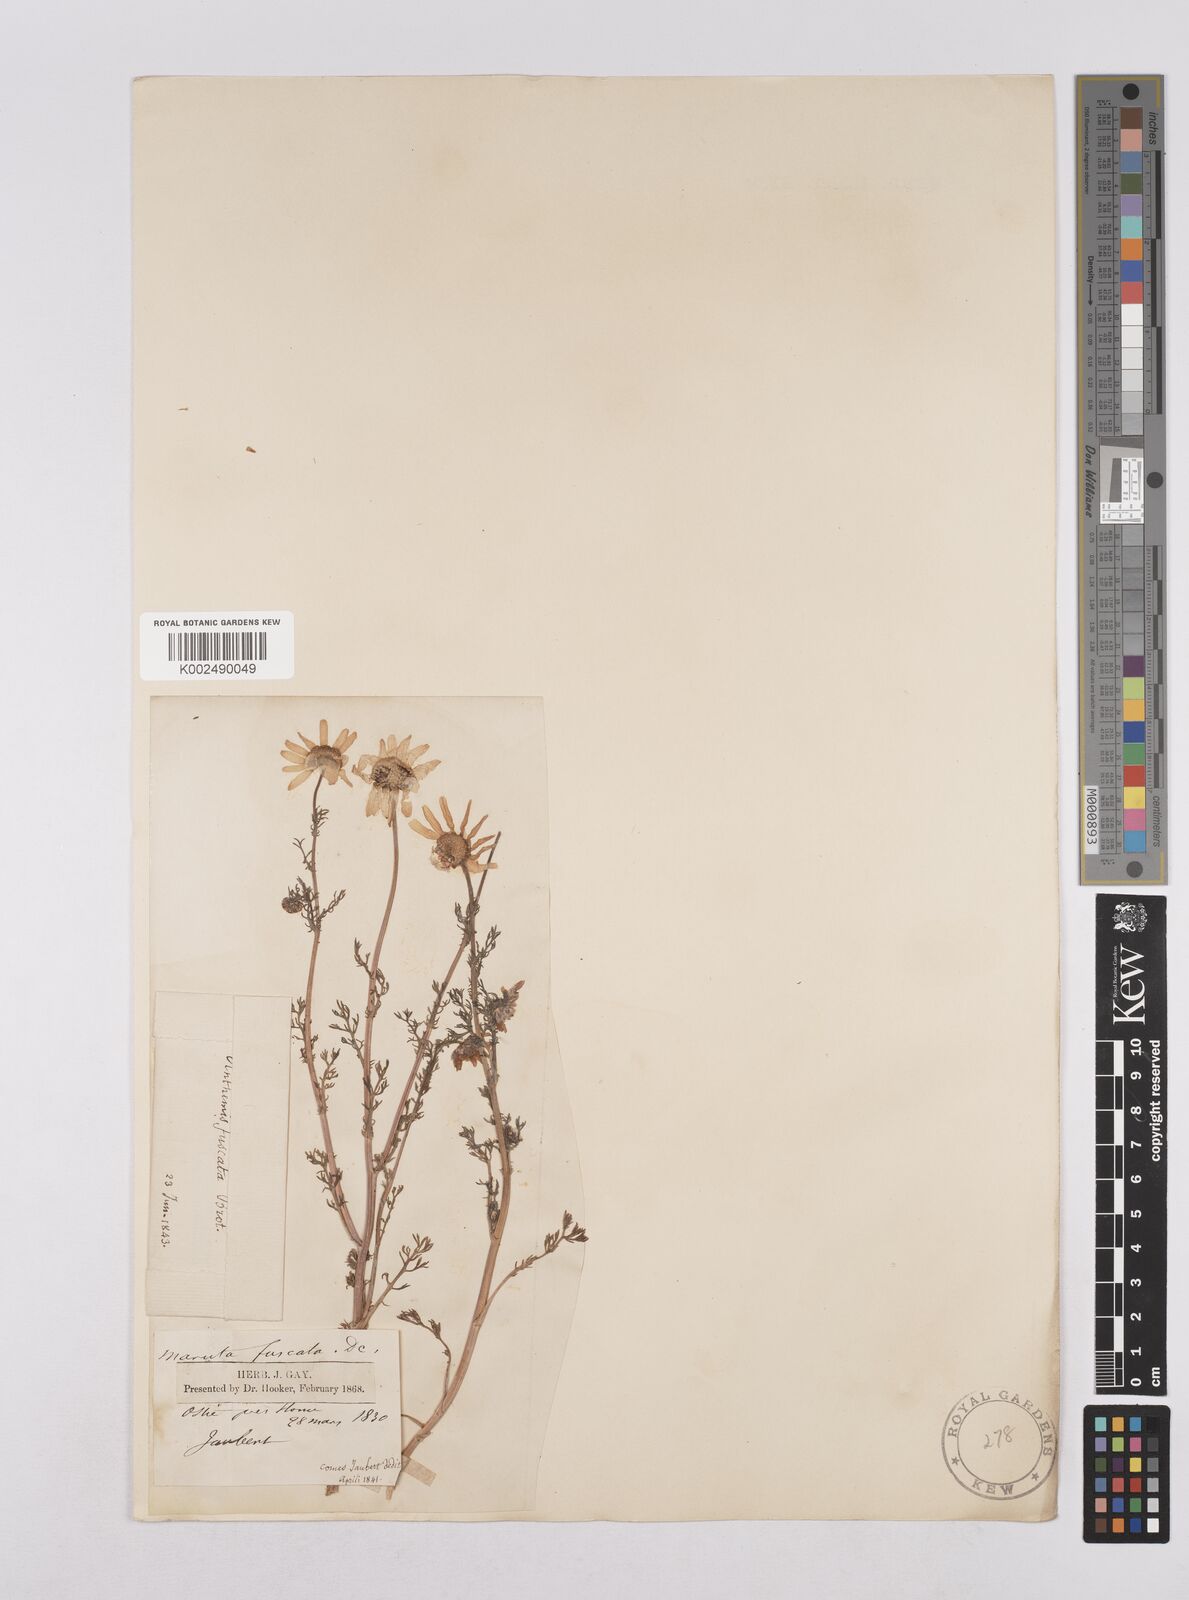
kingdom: Plantae
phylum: Tracheophyta
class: Magnoliopsida
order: Asterales
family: Asteraceae
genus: Chamaemelum
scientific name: Chamaemelum fuscatum
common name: Chamomile
